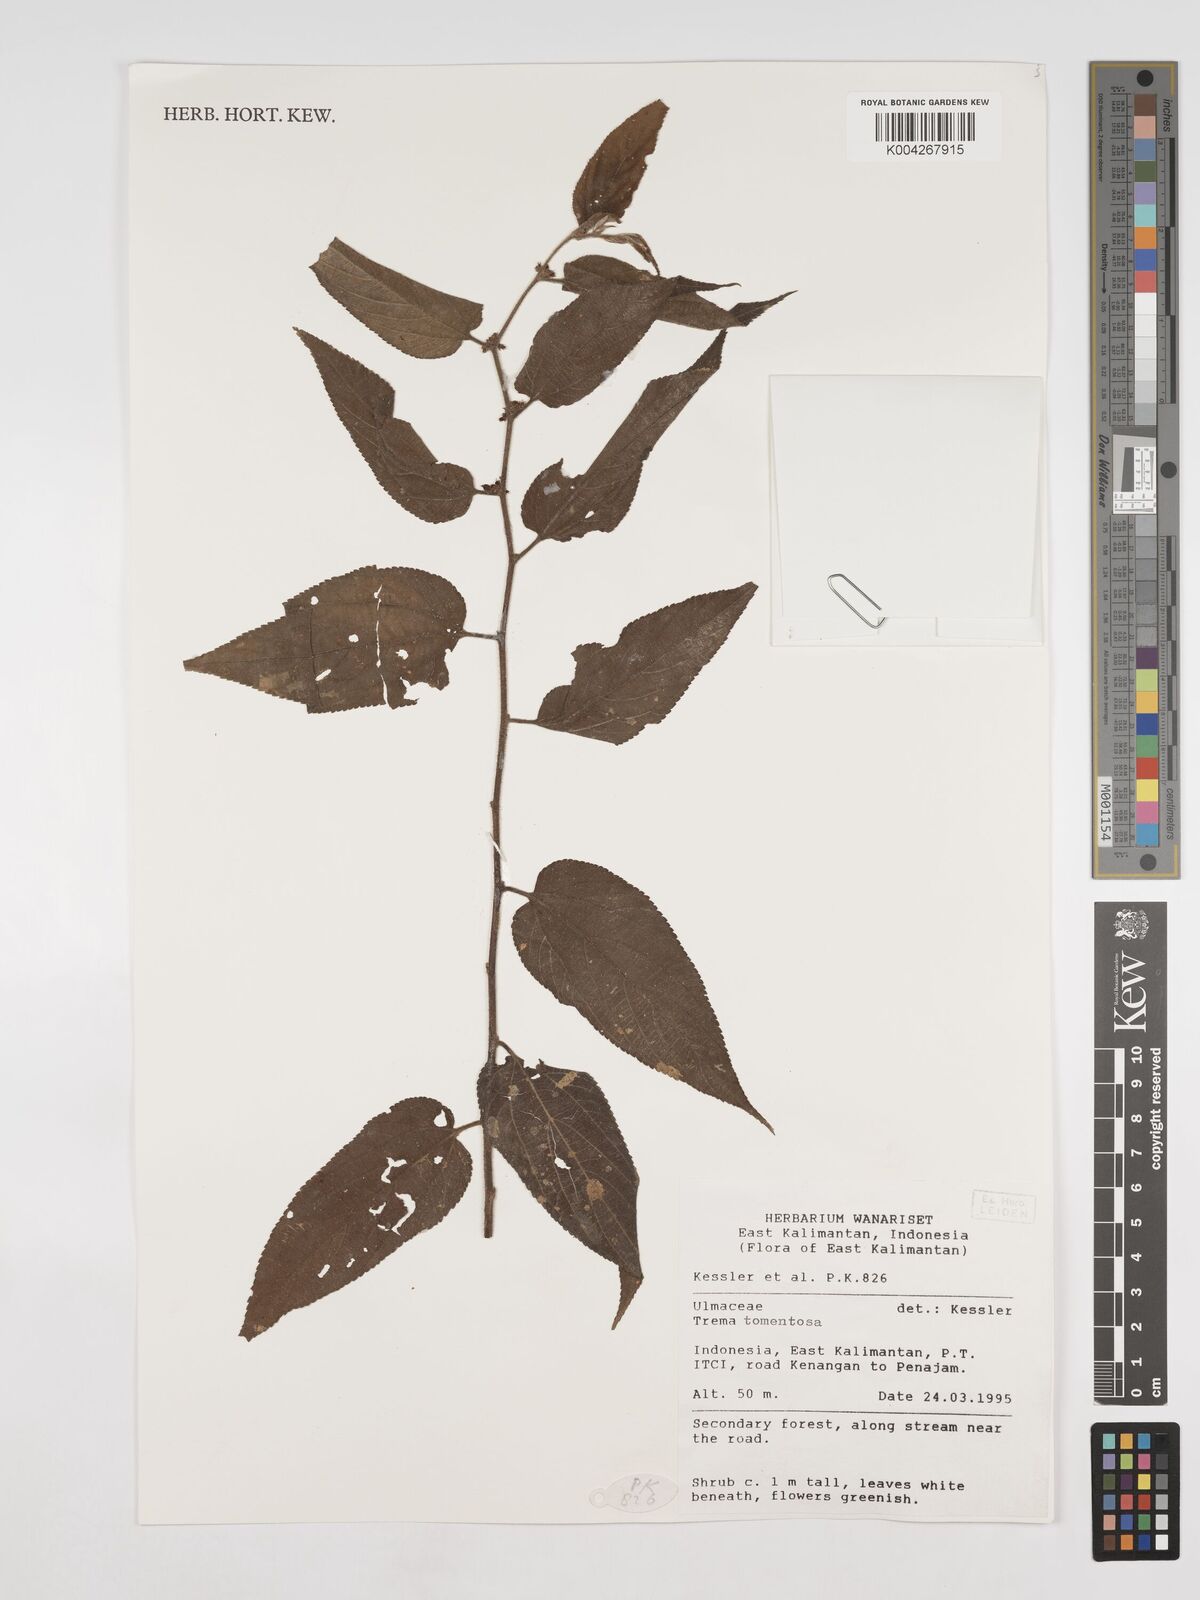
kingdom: Plantae
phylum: Tracheophyta
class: Magnoliopsida
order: Rosales
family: Cannabaceae
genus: Trema
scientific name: Trema tomentosum
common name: Peach-leaf-poisonbush
